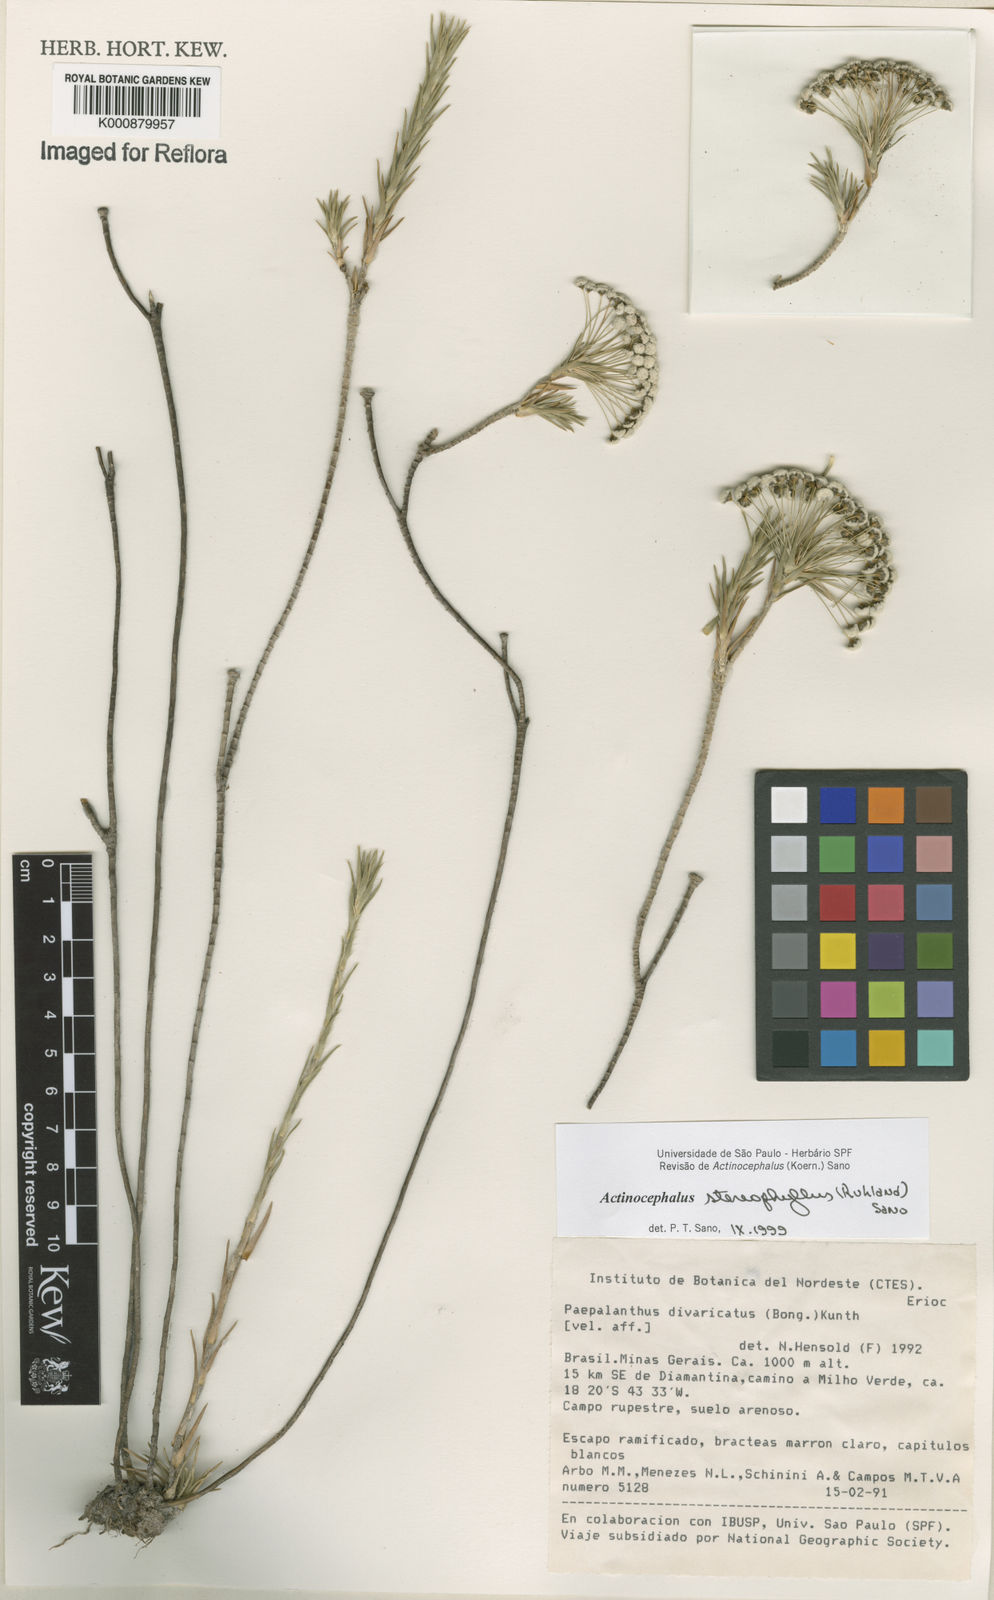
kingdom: Plantae
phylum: Tracheophyta
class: Liliopsida
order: Poales
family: Eriocaulaceae
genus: Paepalanthus
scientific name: Paepalanthus stereophyllus
